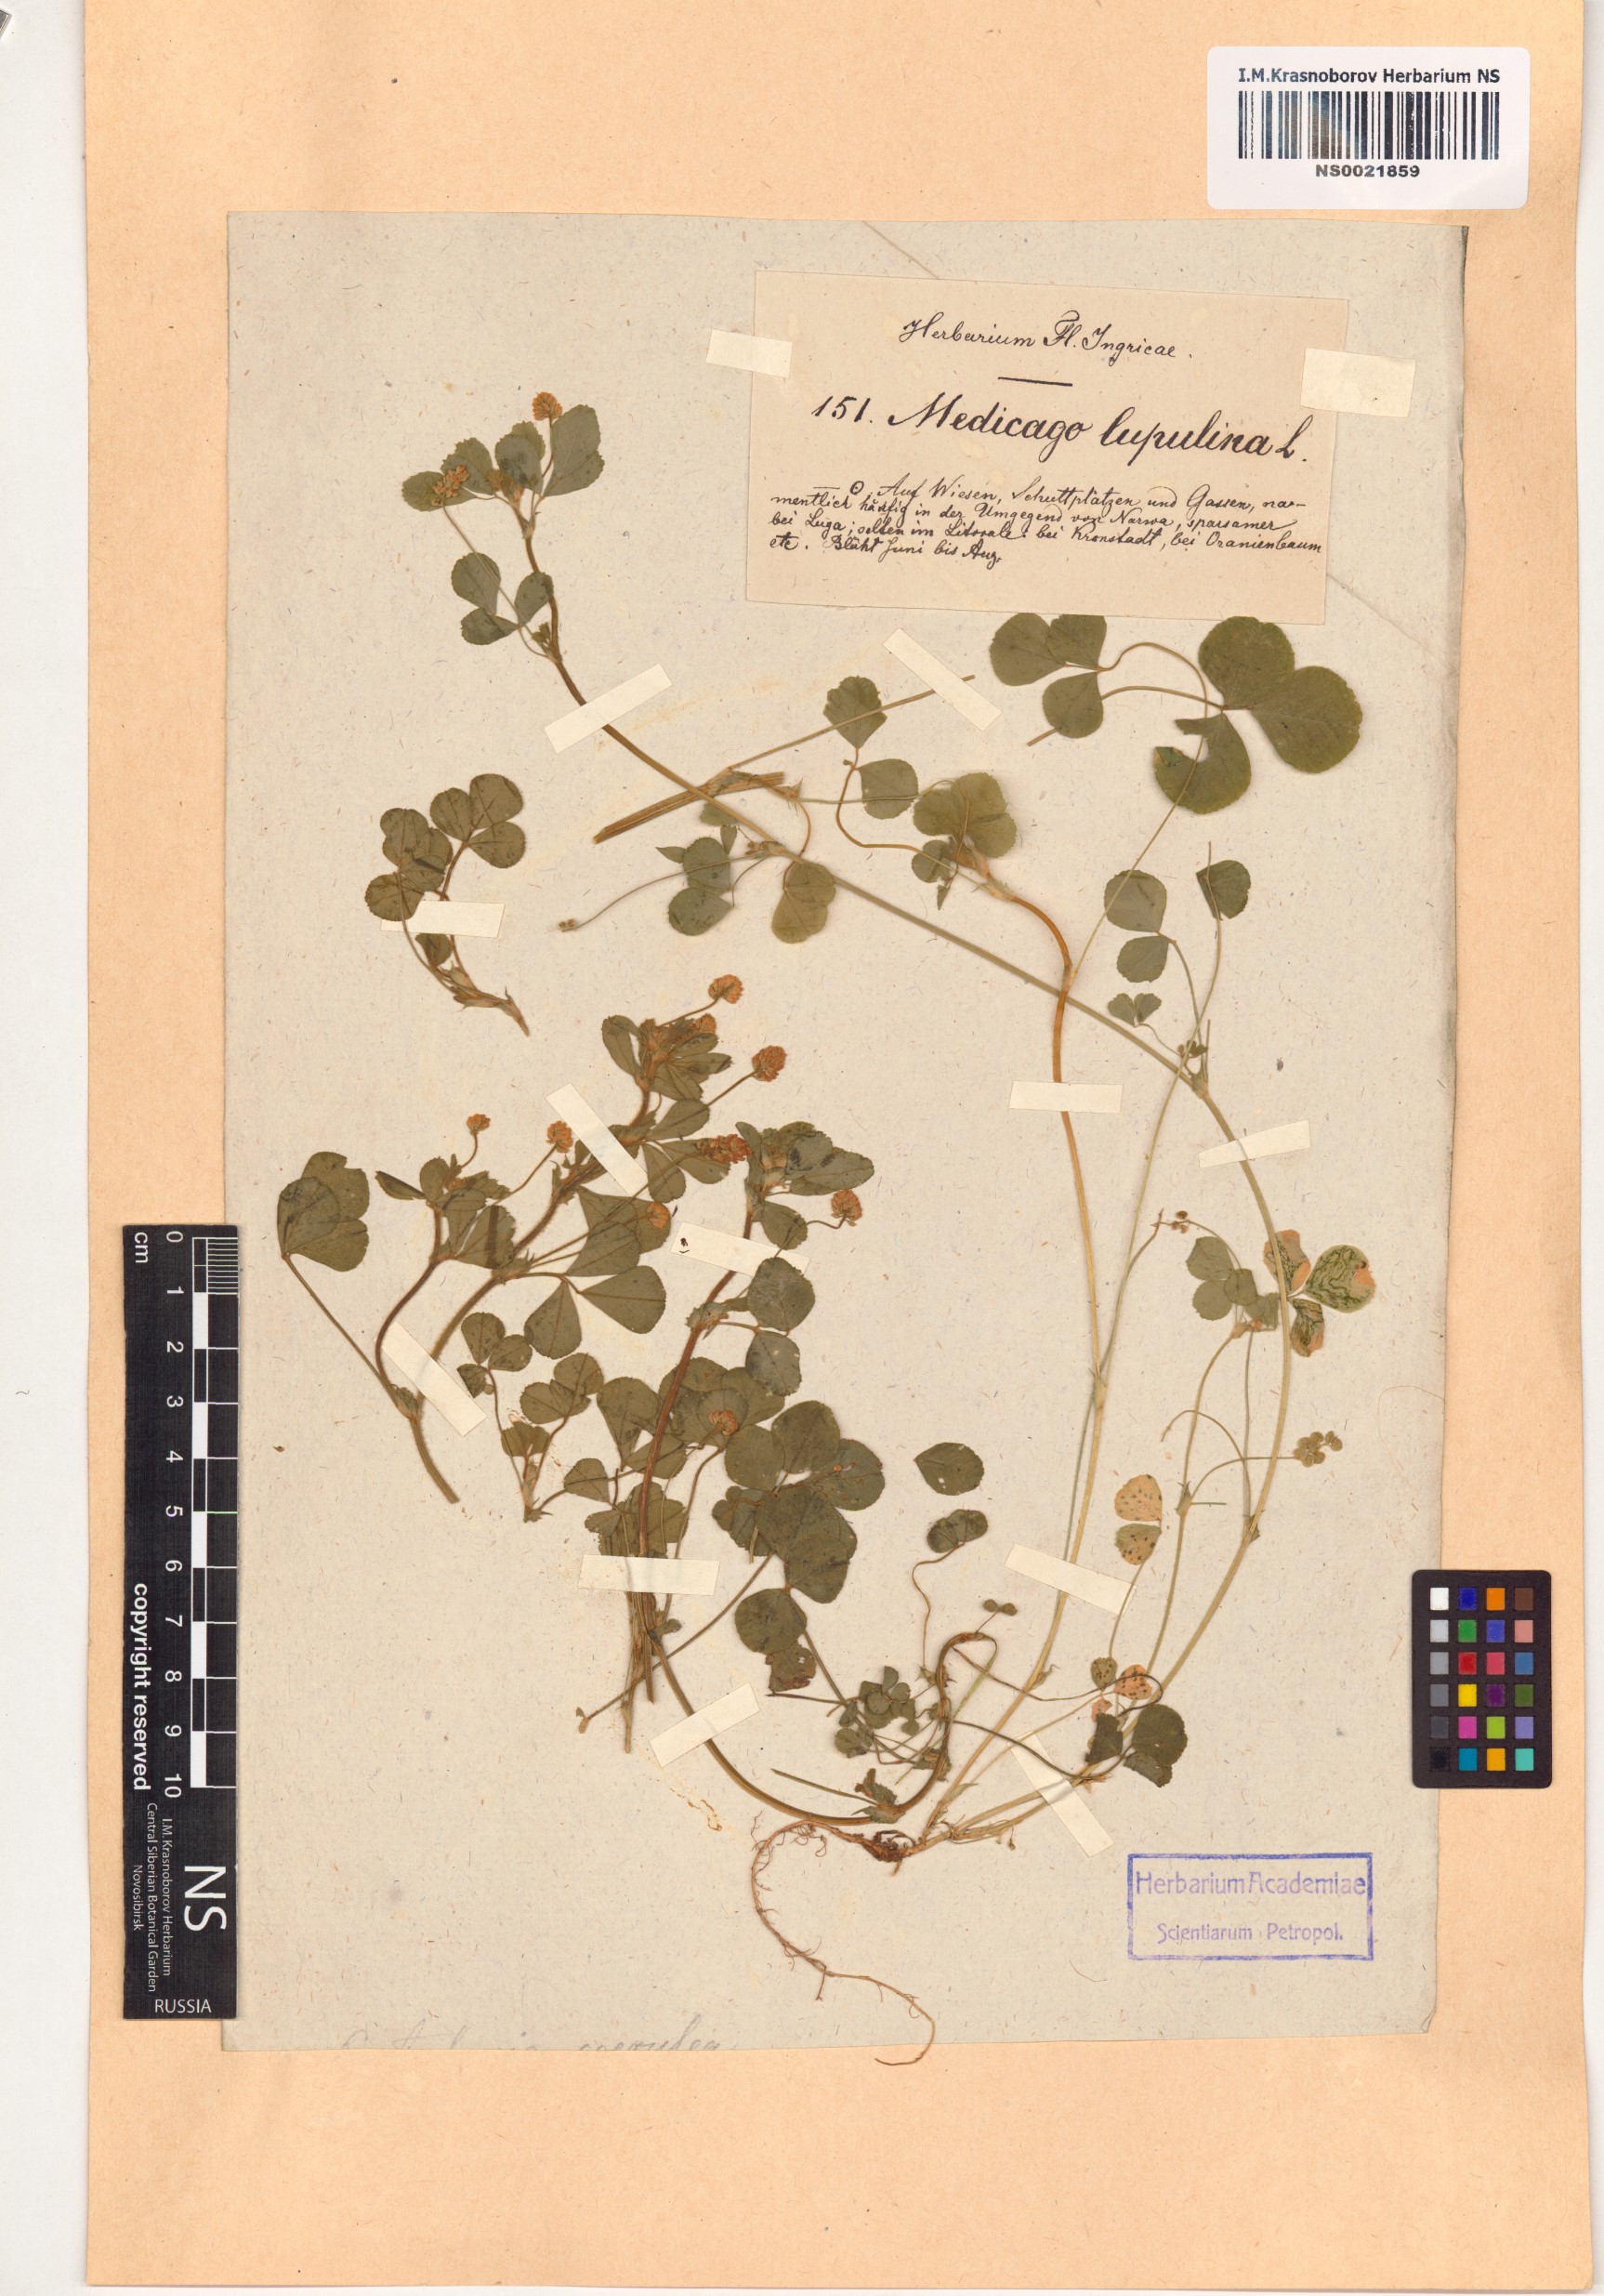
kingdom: Plantae
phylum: Tracheophyta
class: Magnoliopsida
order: Fabales
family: Fabaceae
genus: Medicago
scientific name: Medicago lupulina
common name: Black medick
